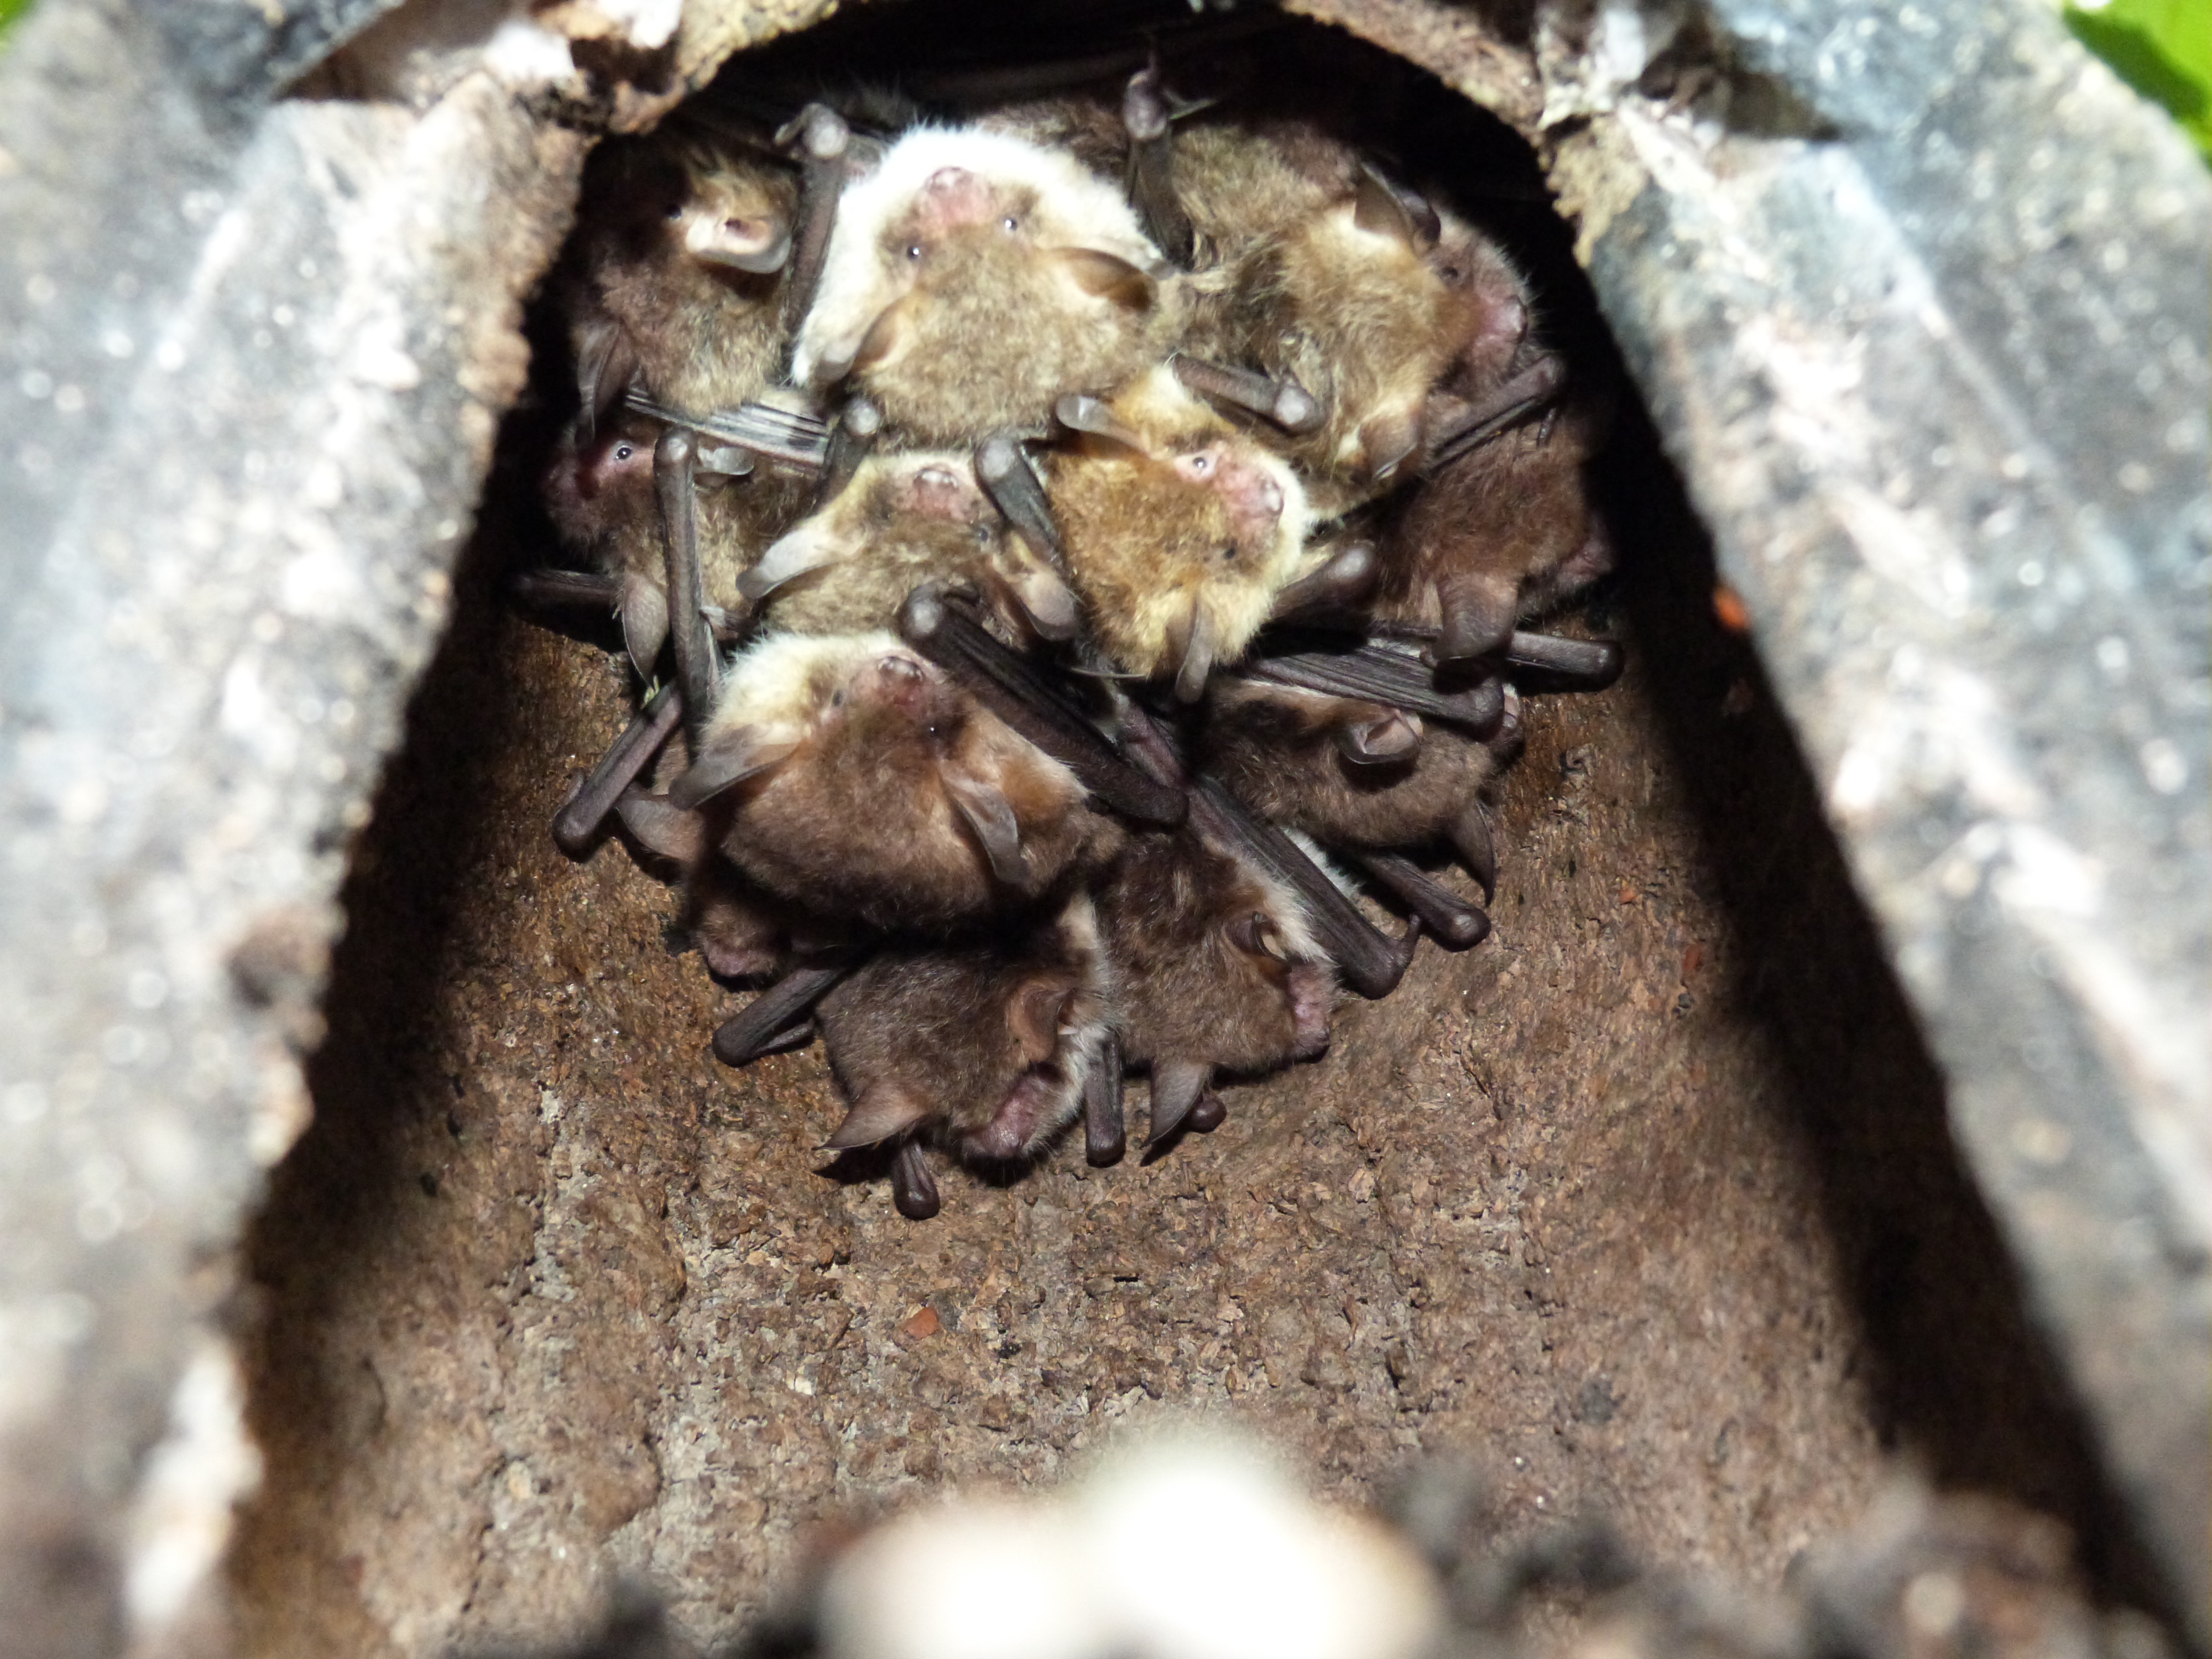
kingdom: Animalia
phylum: Chordata
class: Mammalia
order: Chiroptera
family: Vespertilionidae
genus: Myotis
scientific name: Myotis nattereri
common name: Natterer's bat
